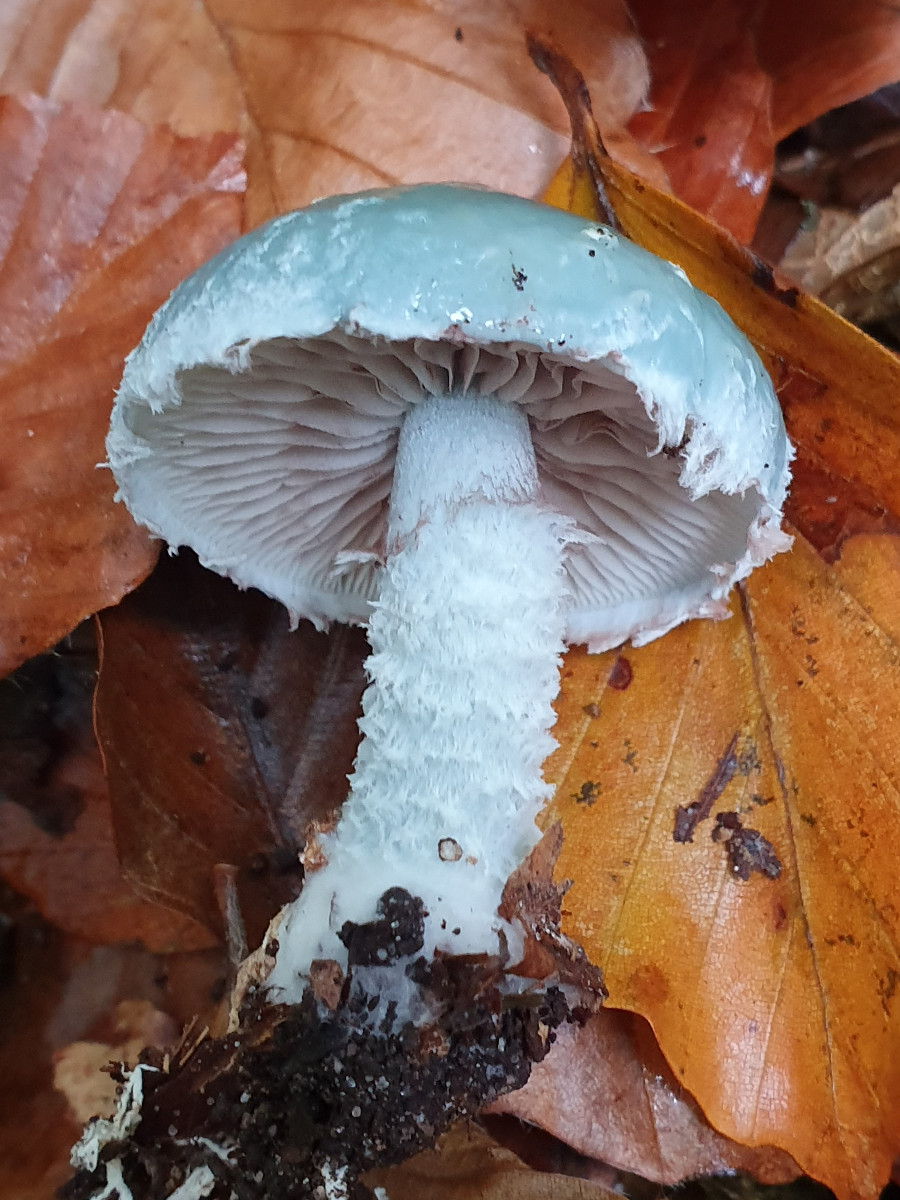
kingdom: Fungi
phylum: Basidiomycota
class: Agaricomycetes
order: Agaricales
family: Strophariaceae
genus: Stropharia
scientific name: Stropharia aeruginosa
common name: spanskgrøn bredblad
